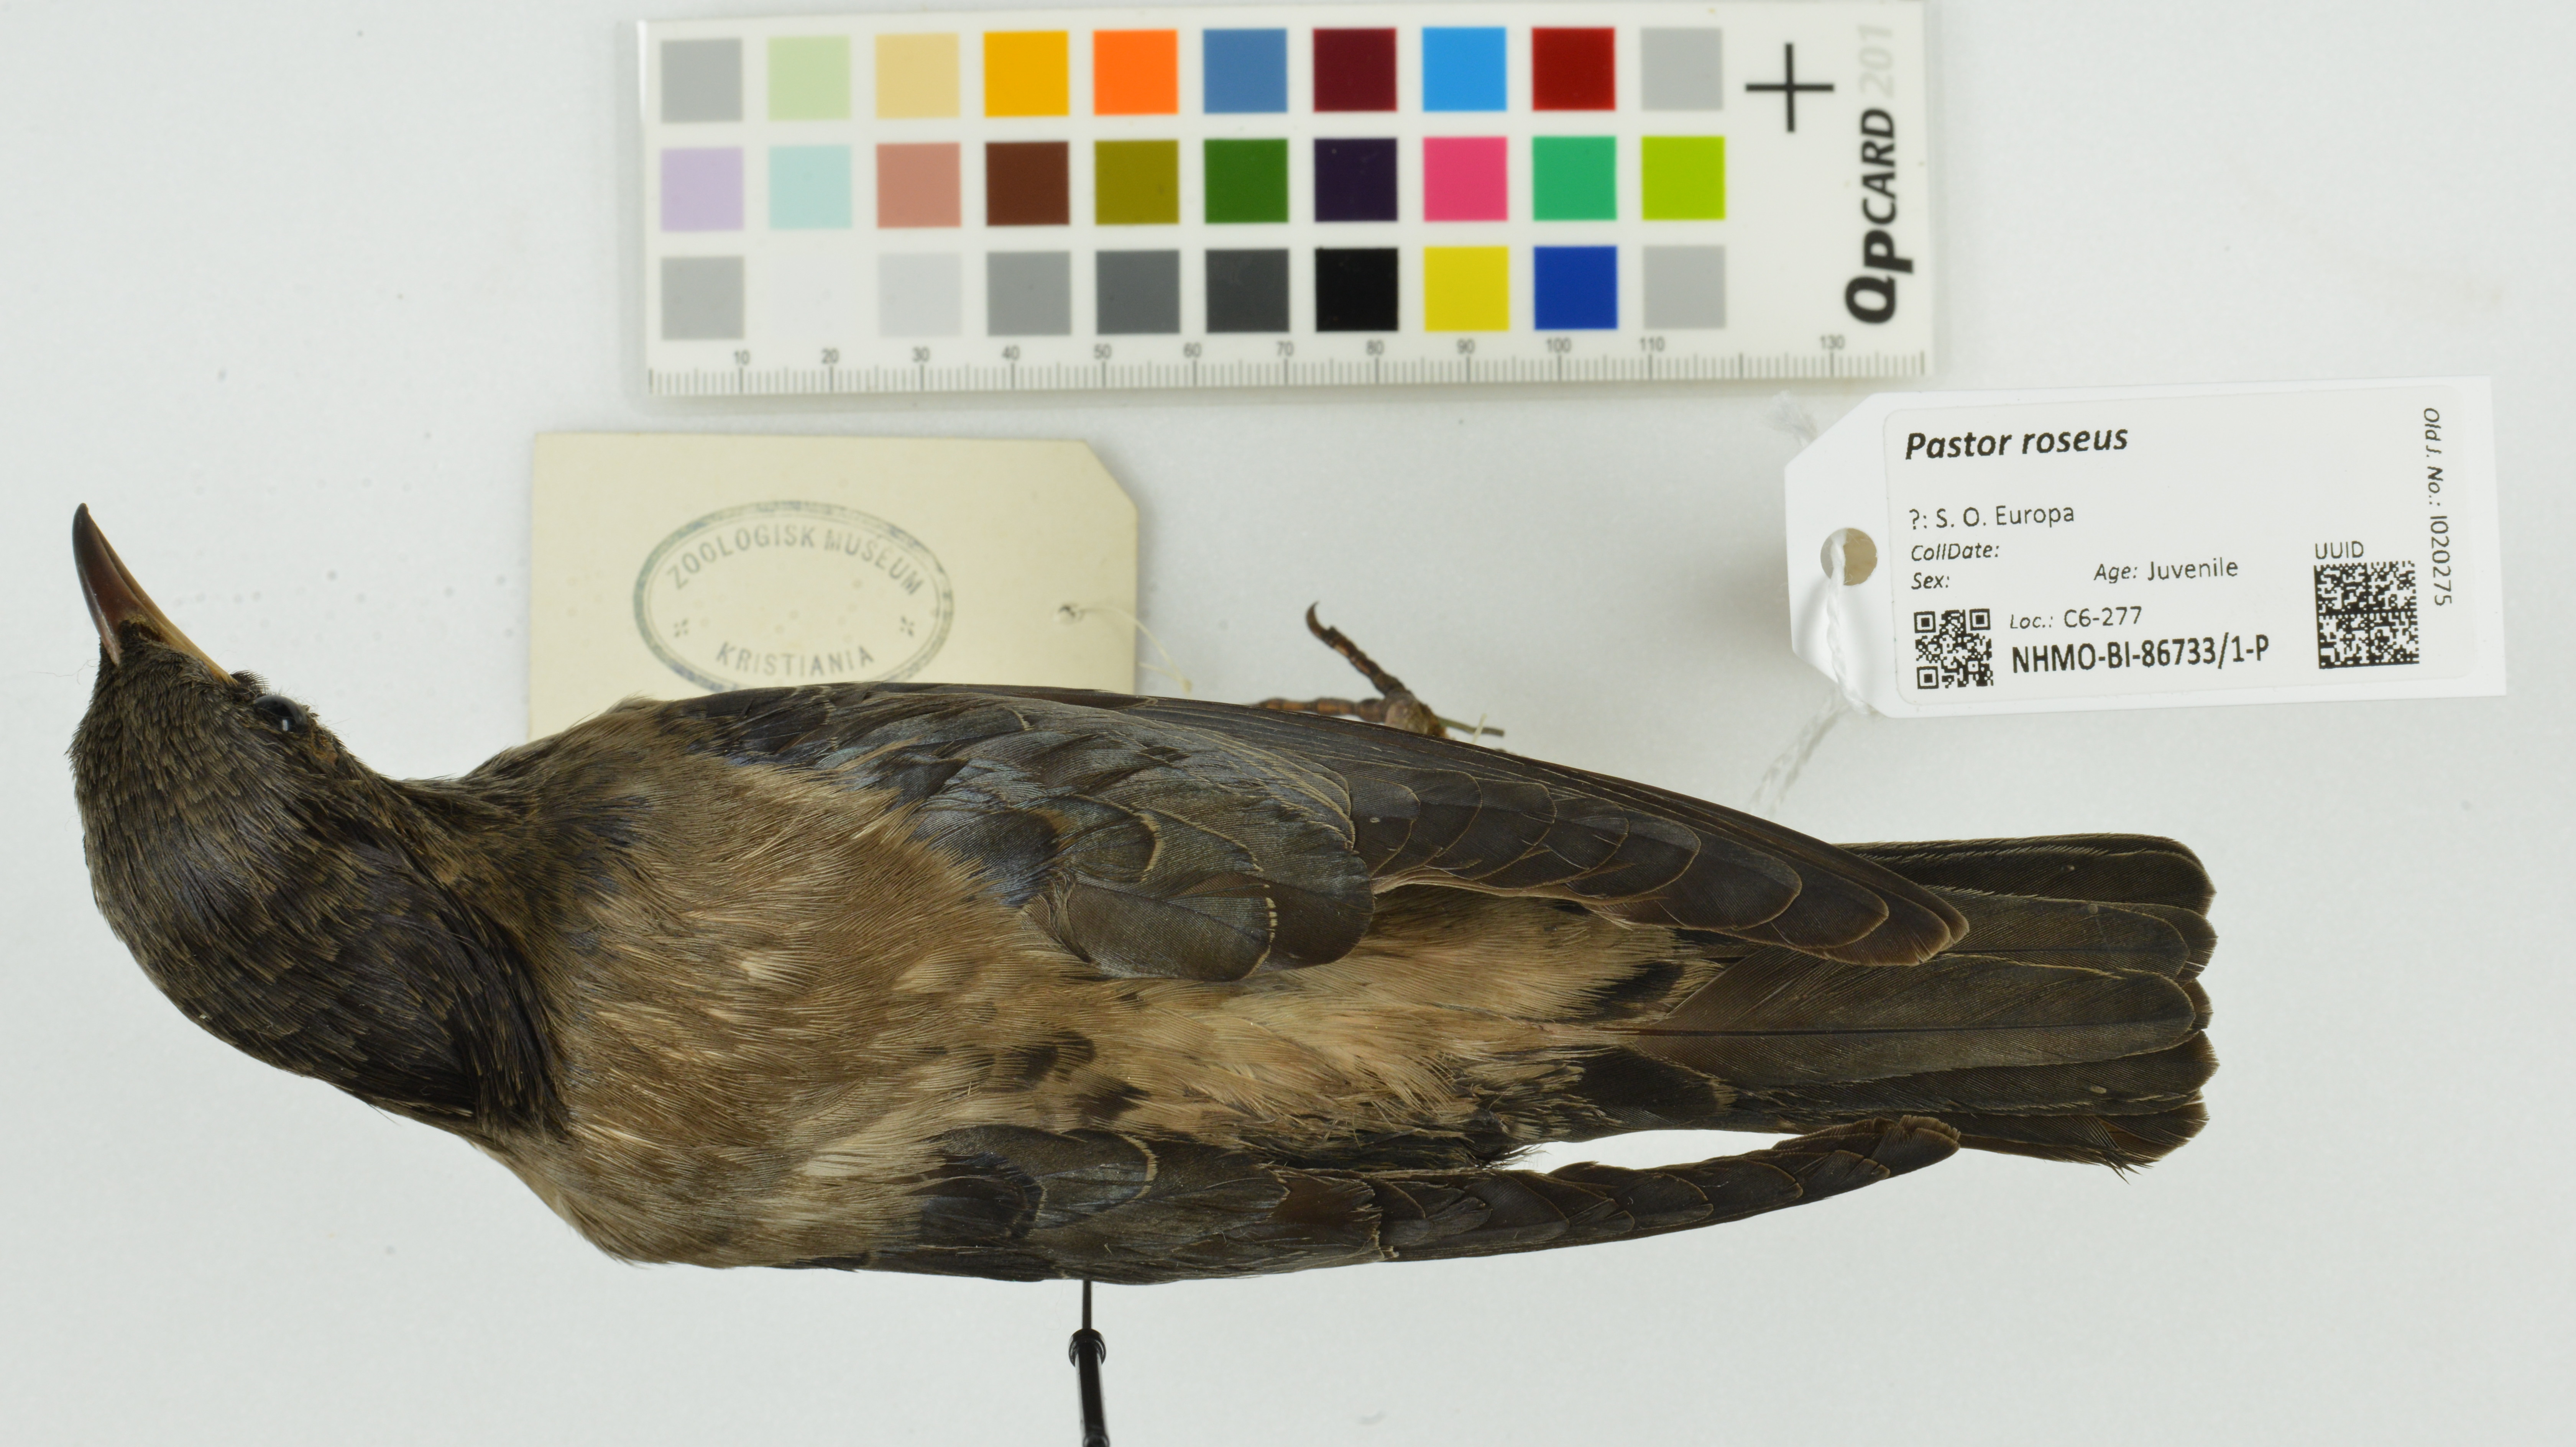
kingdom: Animalia
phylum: Chordata
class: Aves
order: Passeriformes
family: Sturnidae
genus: Pastor
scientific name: Pastor roseus
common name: Rosy starling
